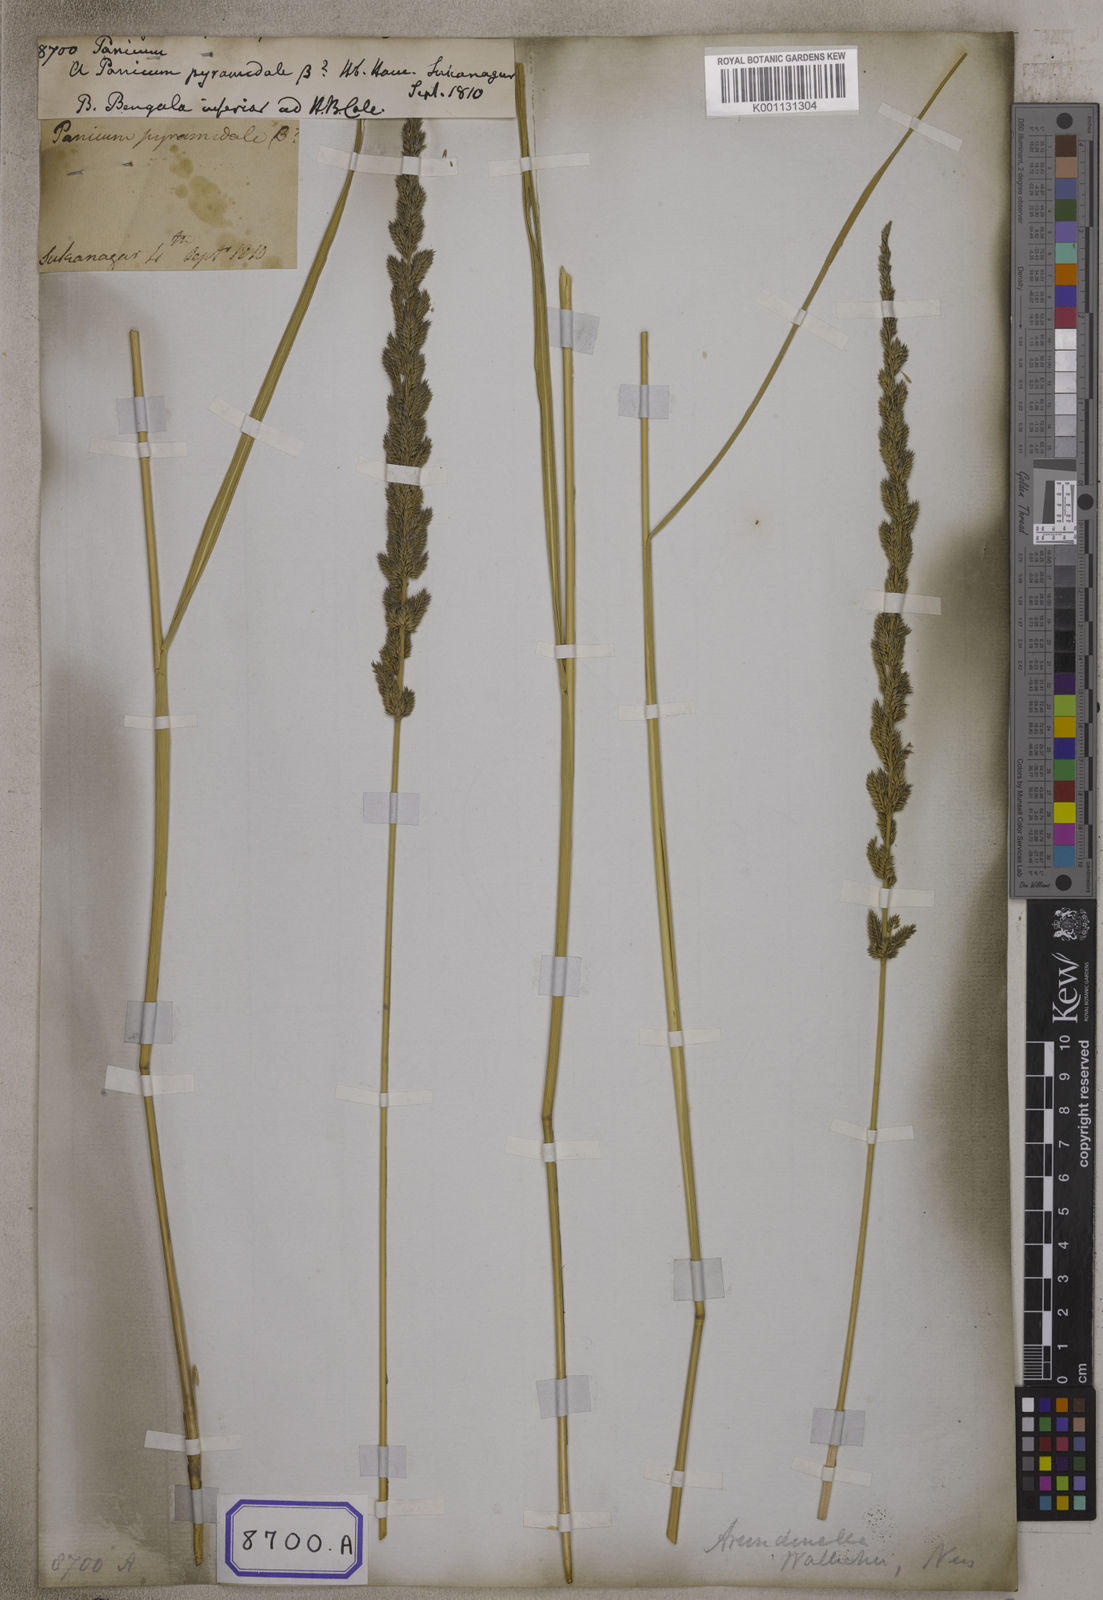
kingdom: Plantae
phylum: Tracheophyta
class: Liliopsida
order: Poales
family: Poaceae
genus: Panicum
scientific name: Panicum
